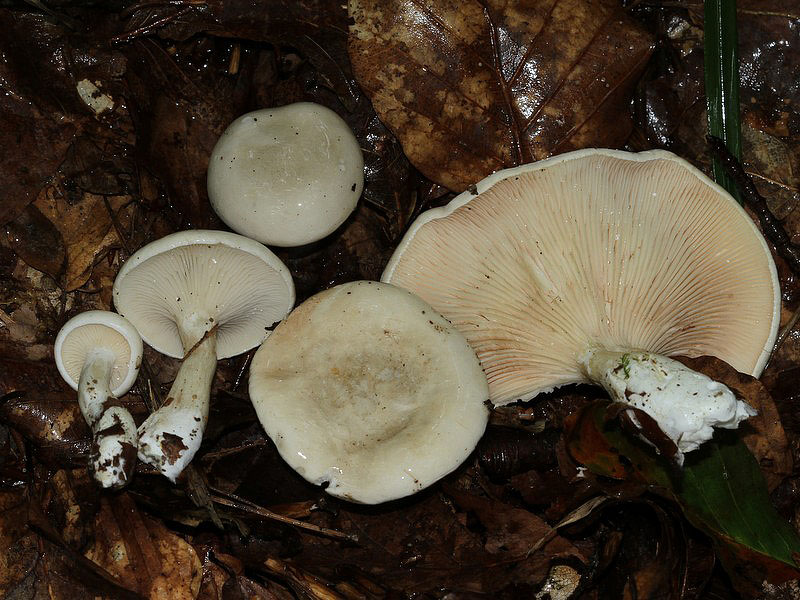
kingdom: Fungi
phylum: Basidiomycota
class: Agaricomycetes
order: Agaricales
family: Entolomataceae
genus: Clitopilus
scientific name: Clitopilus prunulus
